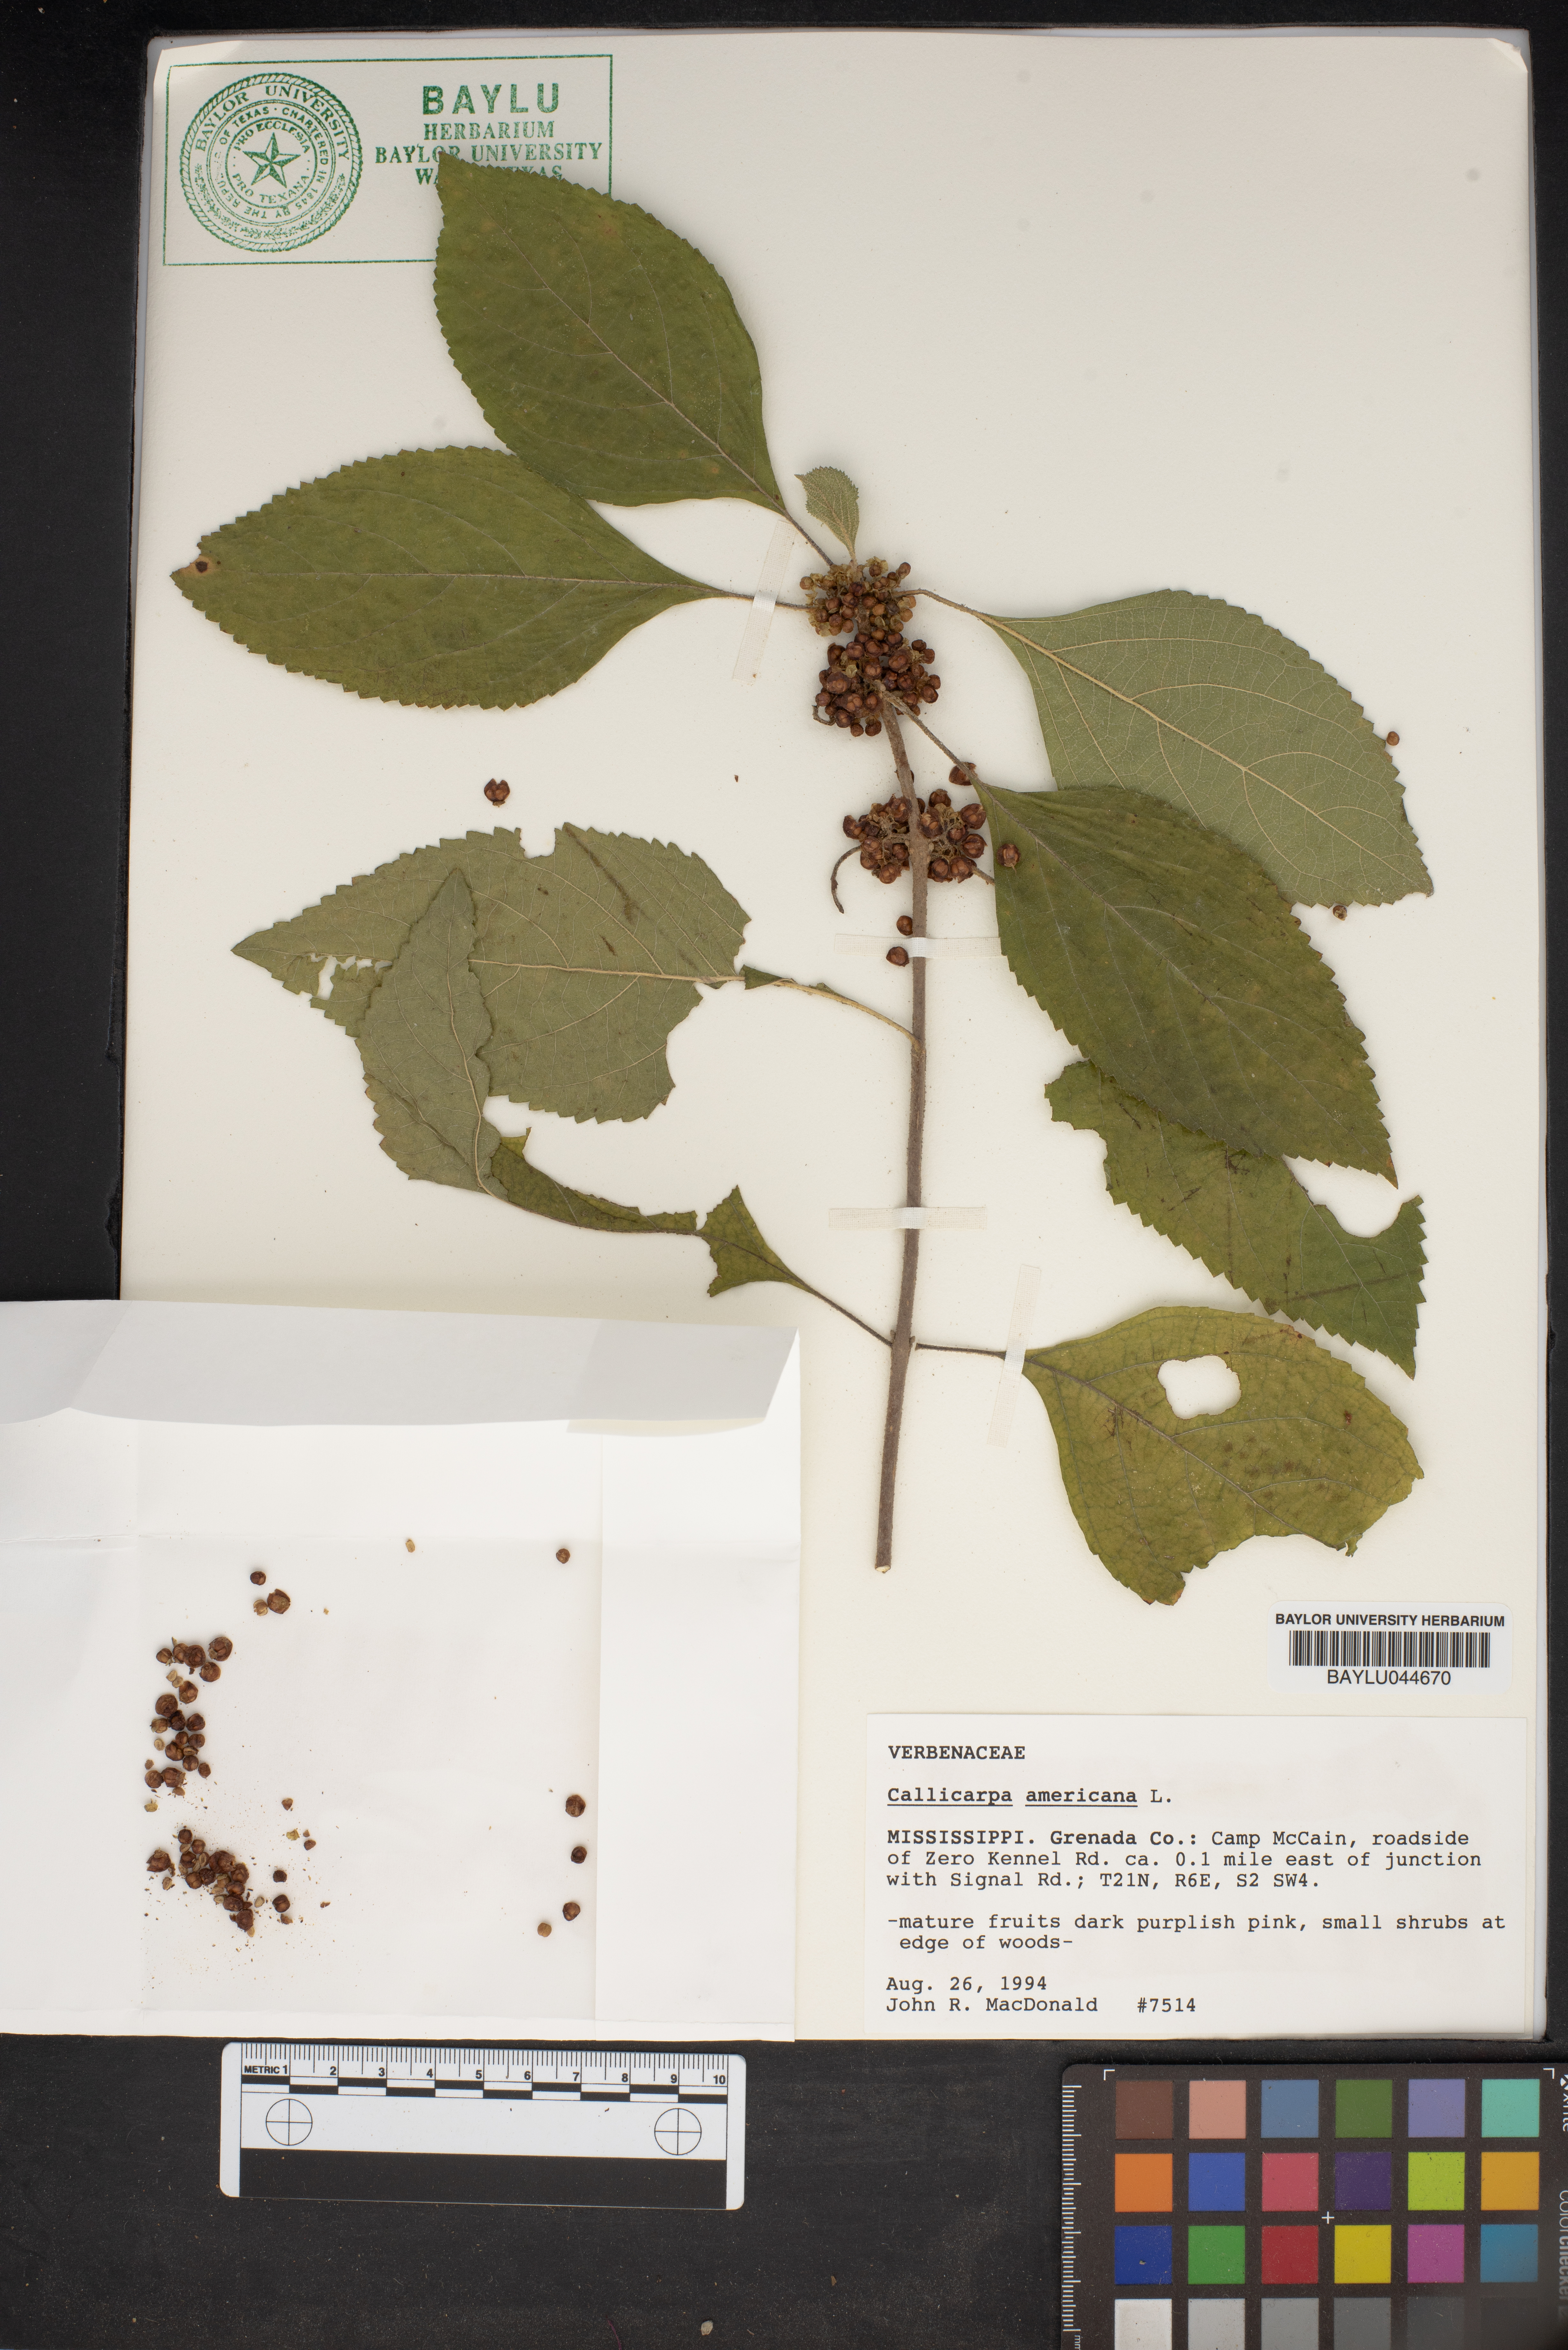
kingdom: Plantae
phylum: Tracheophyta
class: Magnoliopsida
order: Lamiales
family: Lamiaceae
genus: Callicarpa
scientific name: Callicarpa americana
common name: American beautyberry
